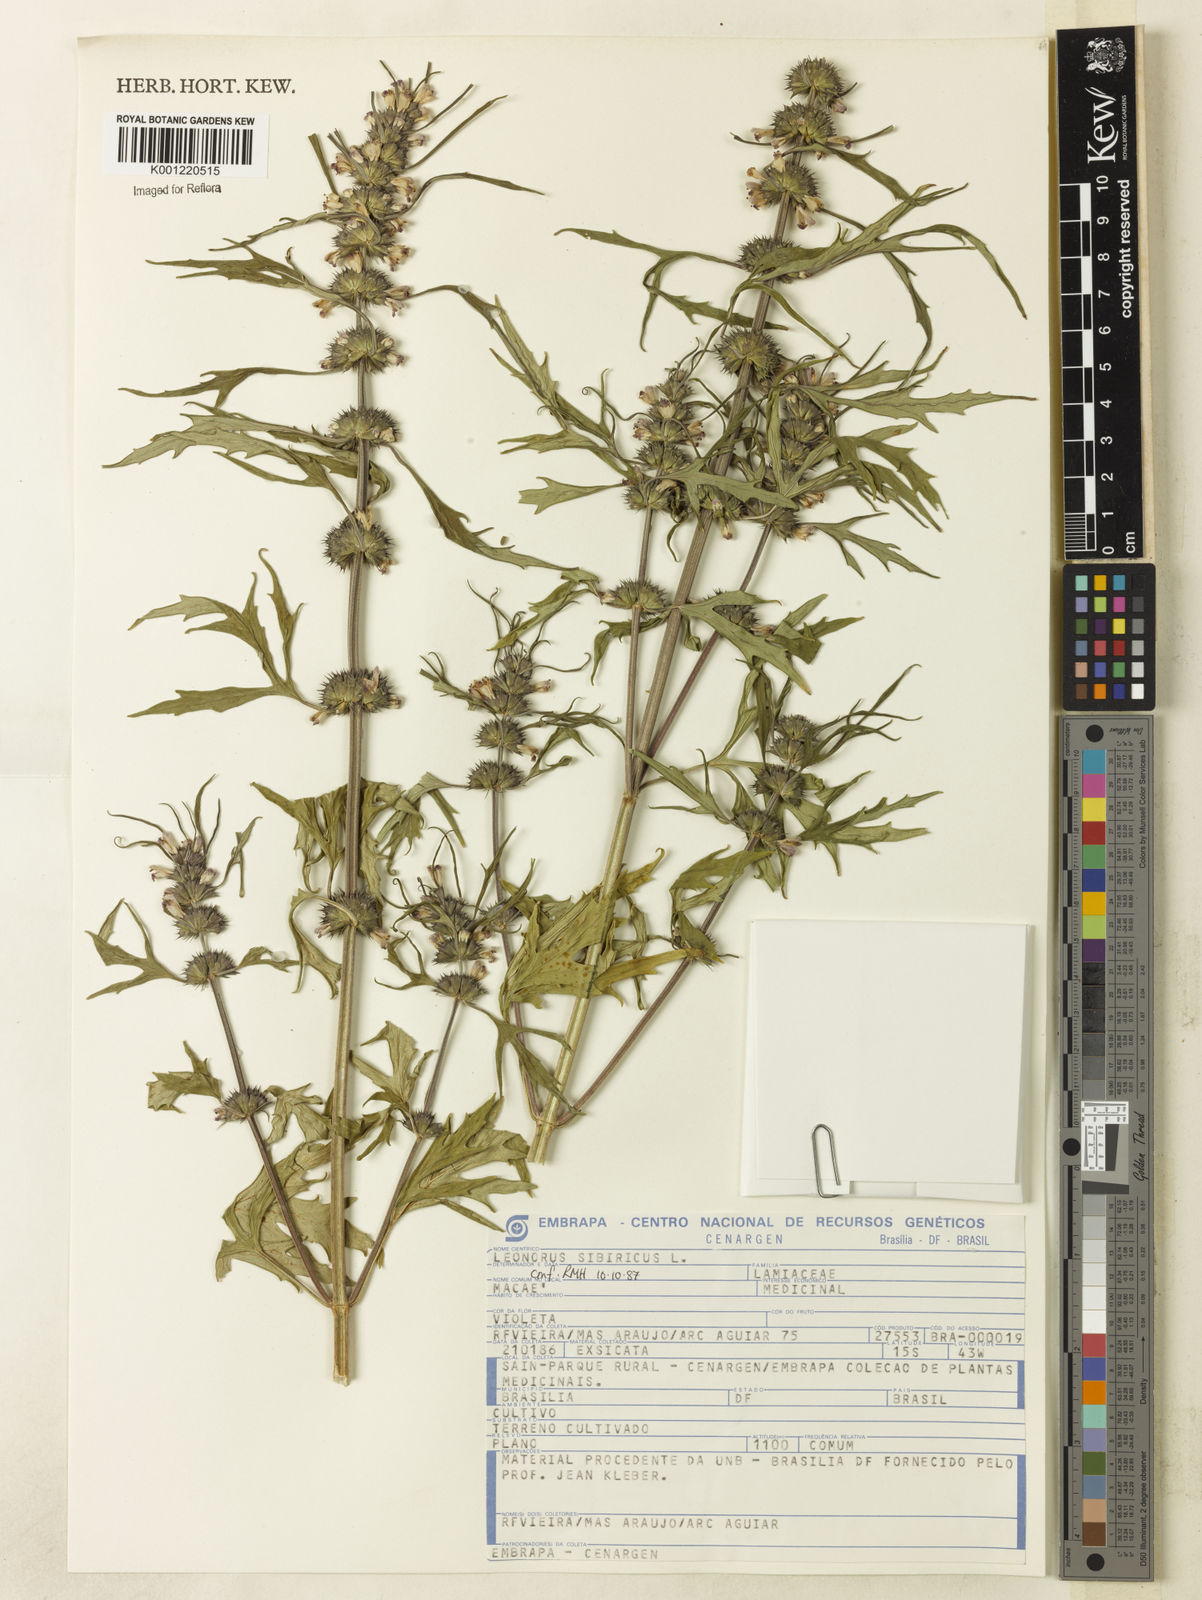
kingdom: Plantae
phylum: Tracheophyta
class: Magnoliopsida
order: Lamiales
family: Lamiaceae
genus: Leonurus
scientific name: Leonurus japonicus
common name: Honeyweed
